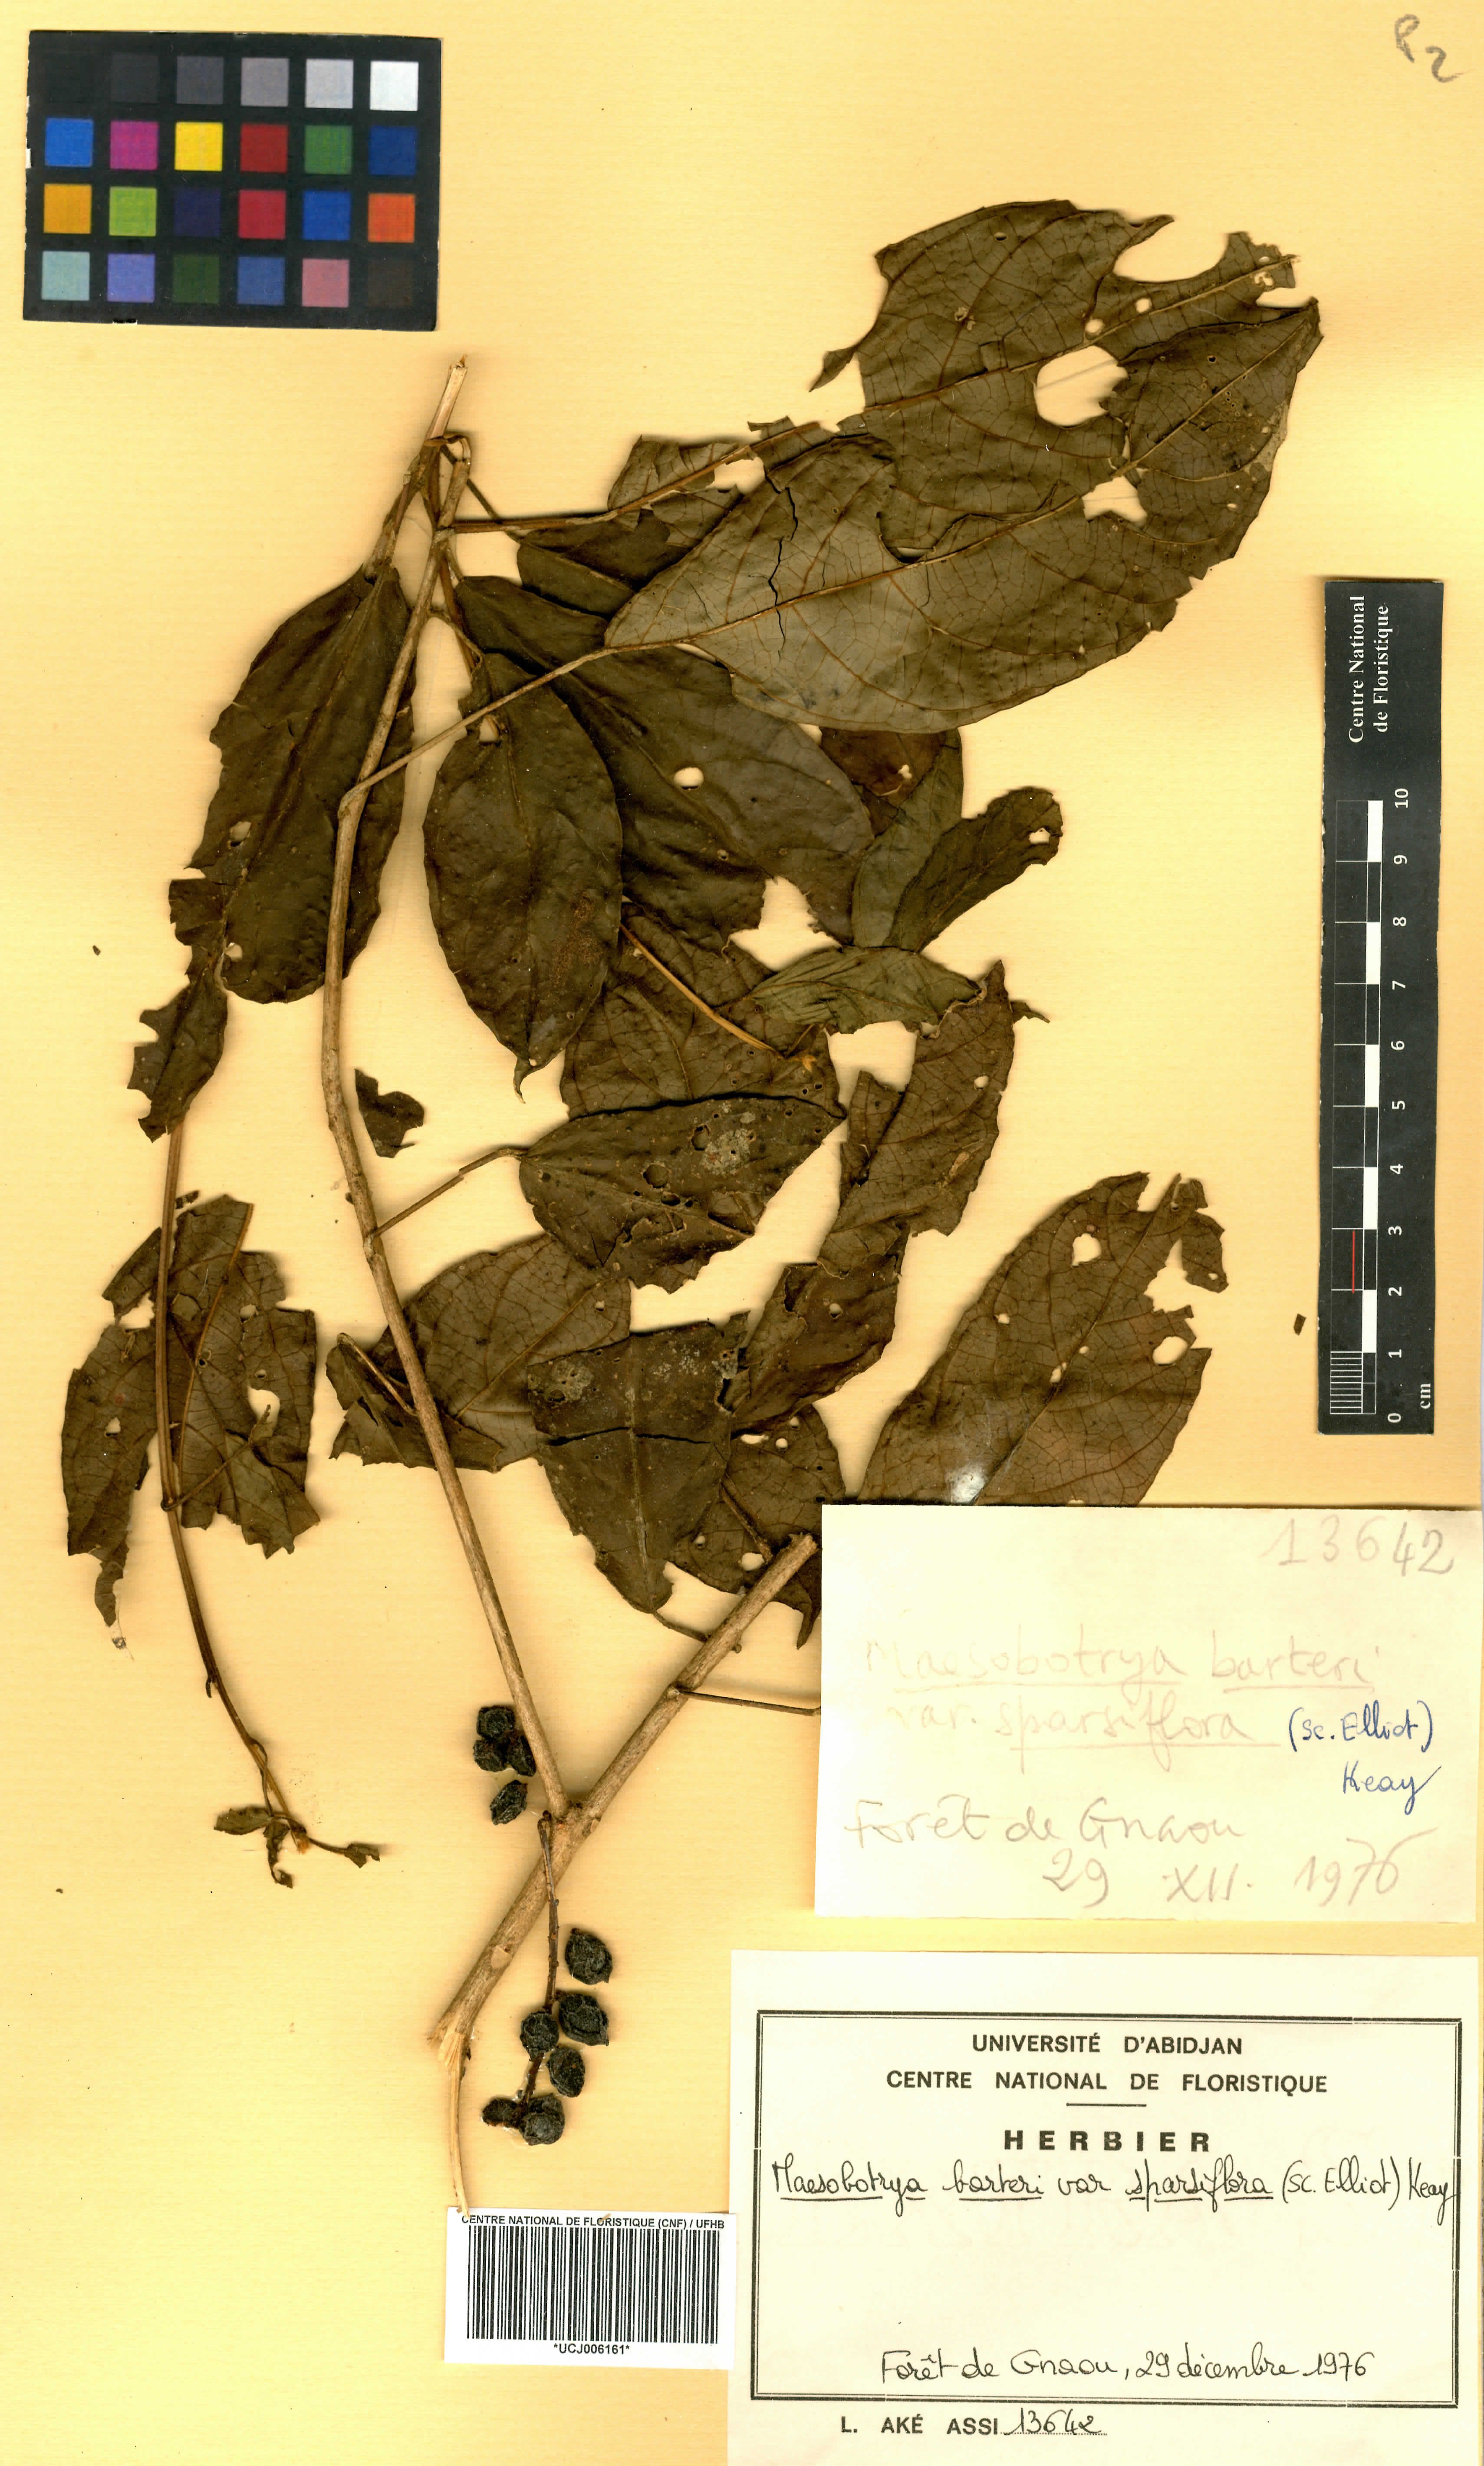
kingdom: Plantae
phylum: Tracheophyta
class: Magnoliopsida
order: Malpighiales
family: Phyllanthaceae
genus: Maesobotrya
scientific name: Maesobotrya barteri
